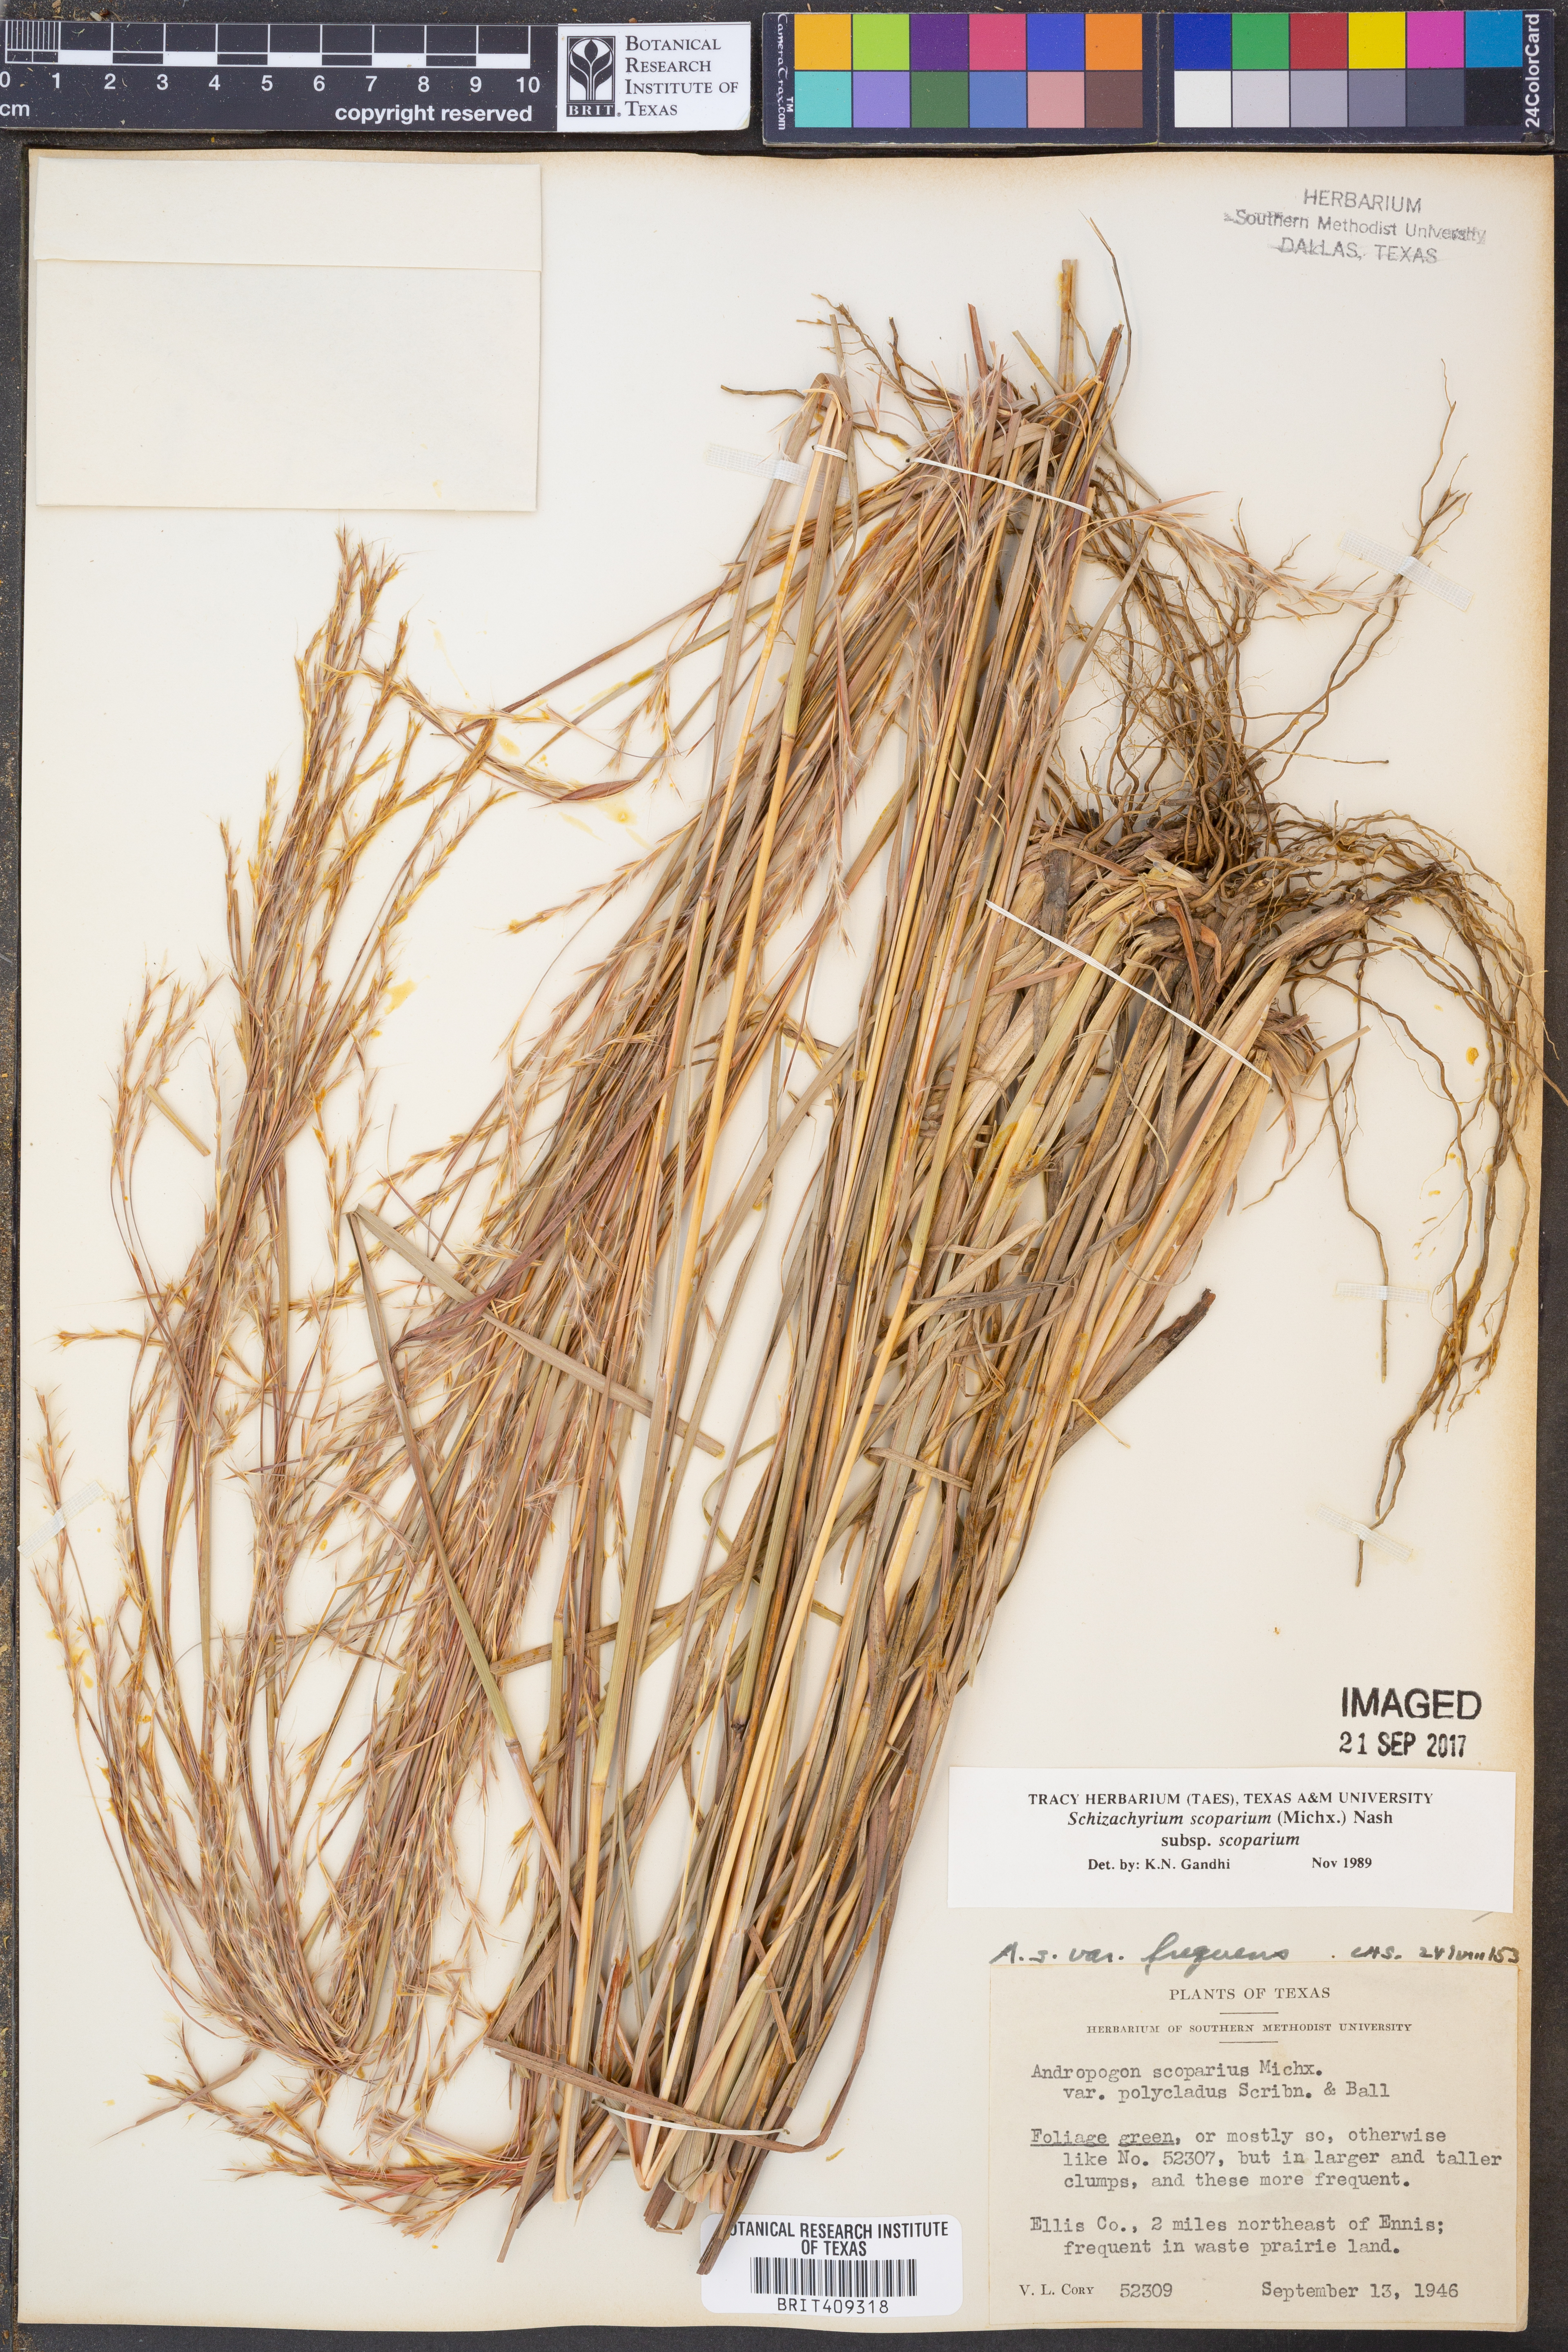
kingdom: Plantae
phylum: Tracheophyta
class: Liliopsida
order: Poales
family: Poaceae
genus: Schizachyrium
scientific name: Schizachyrium scoparium
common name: Little bluestem
